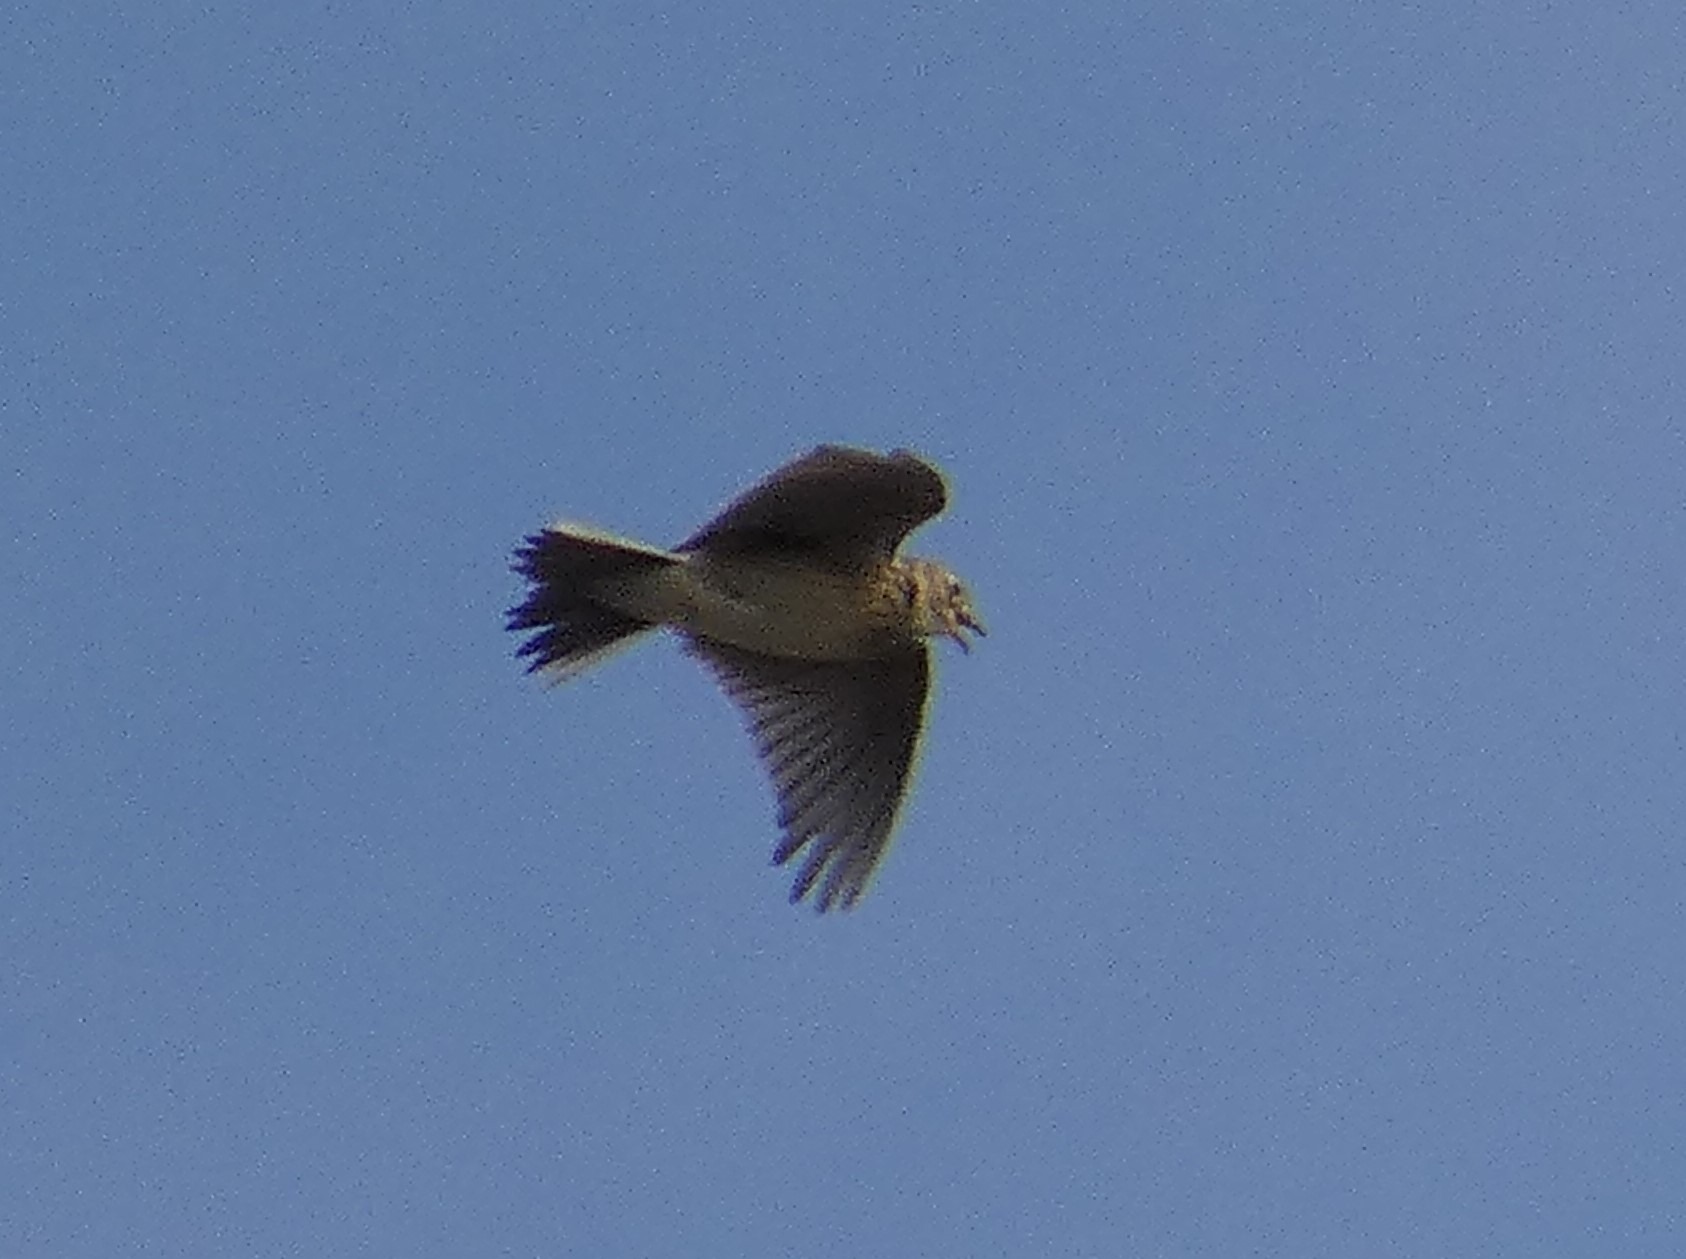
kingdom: Animalia
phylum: Chordata
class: Aves
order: Passeriformes
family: Alaudidae
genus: Alauda
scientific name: Alauda arvensis
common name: Sanglærke
